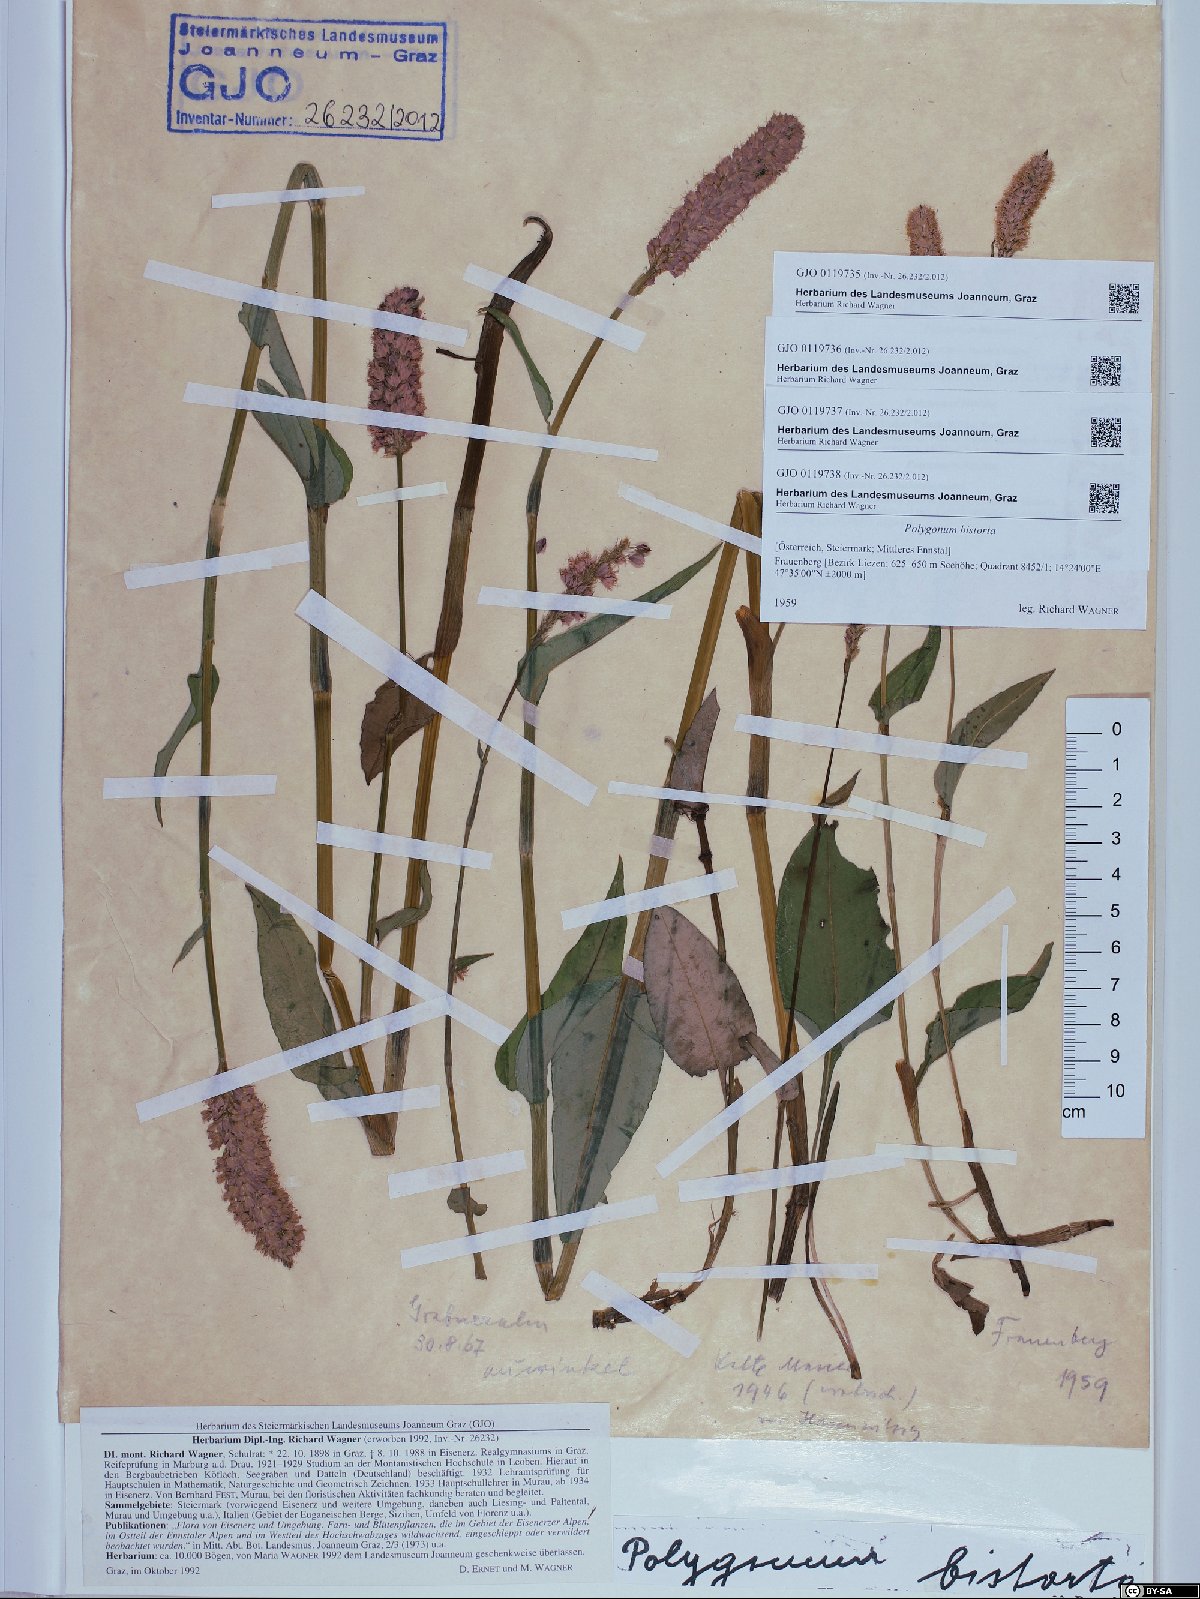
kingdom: Plantae
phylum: Tracheophyta
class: Magnoliopsida
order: Caryophyllales
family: Polygonaceae
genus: Bistorta
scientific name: Bistorta officinalis
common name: Common bistort
